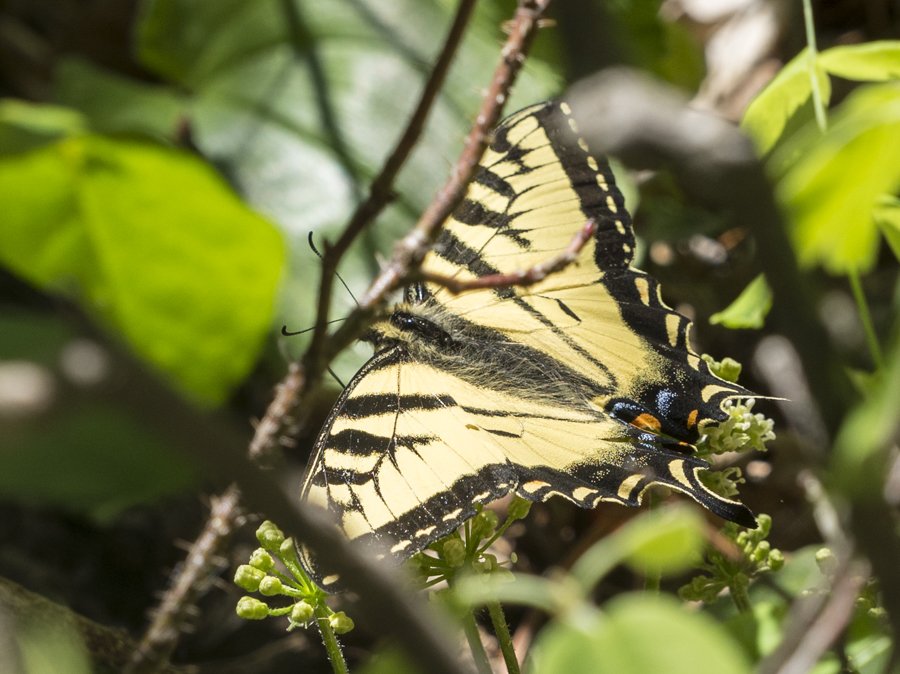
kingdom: Animalia
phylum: Arthropoda
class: Insecta
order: Lepidoptera
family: Papilionidae
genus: Pterourus
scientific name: Pterourus canadensis
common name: Canadian Tiger Swallowtail
